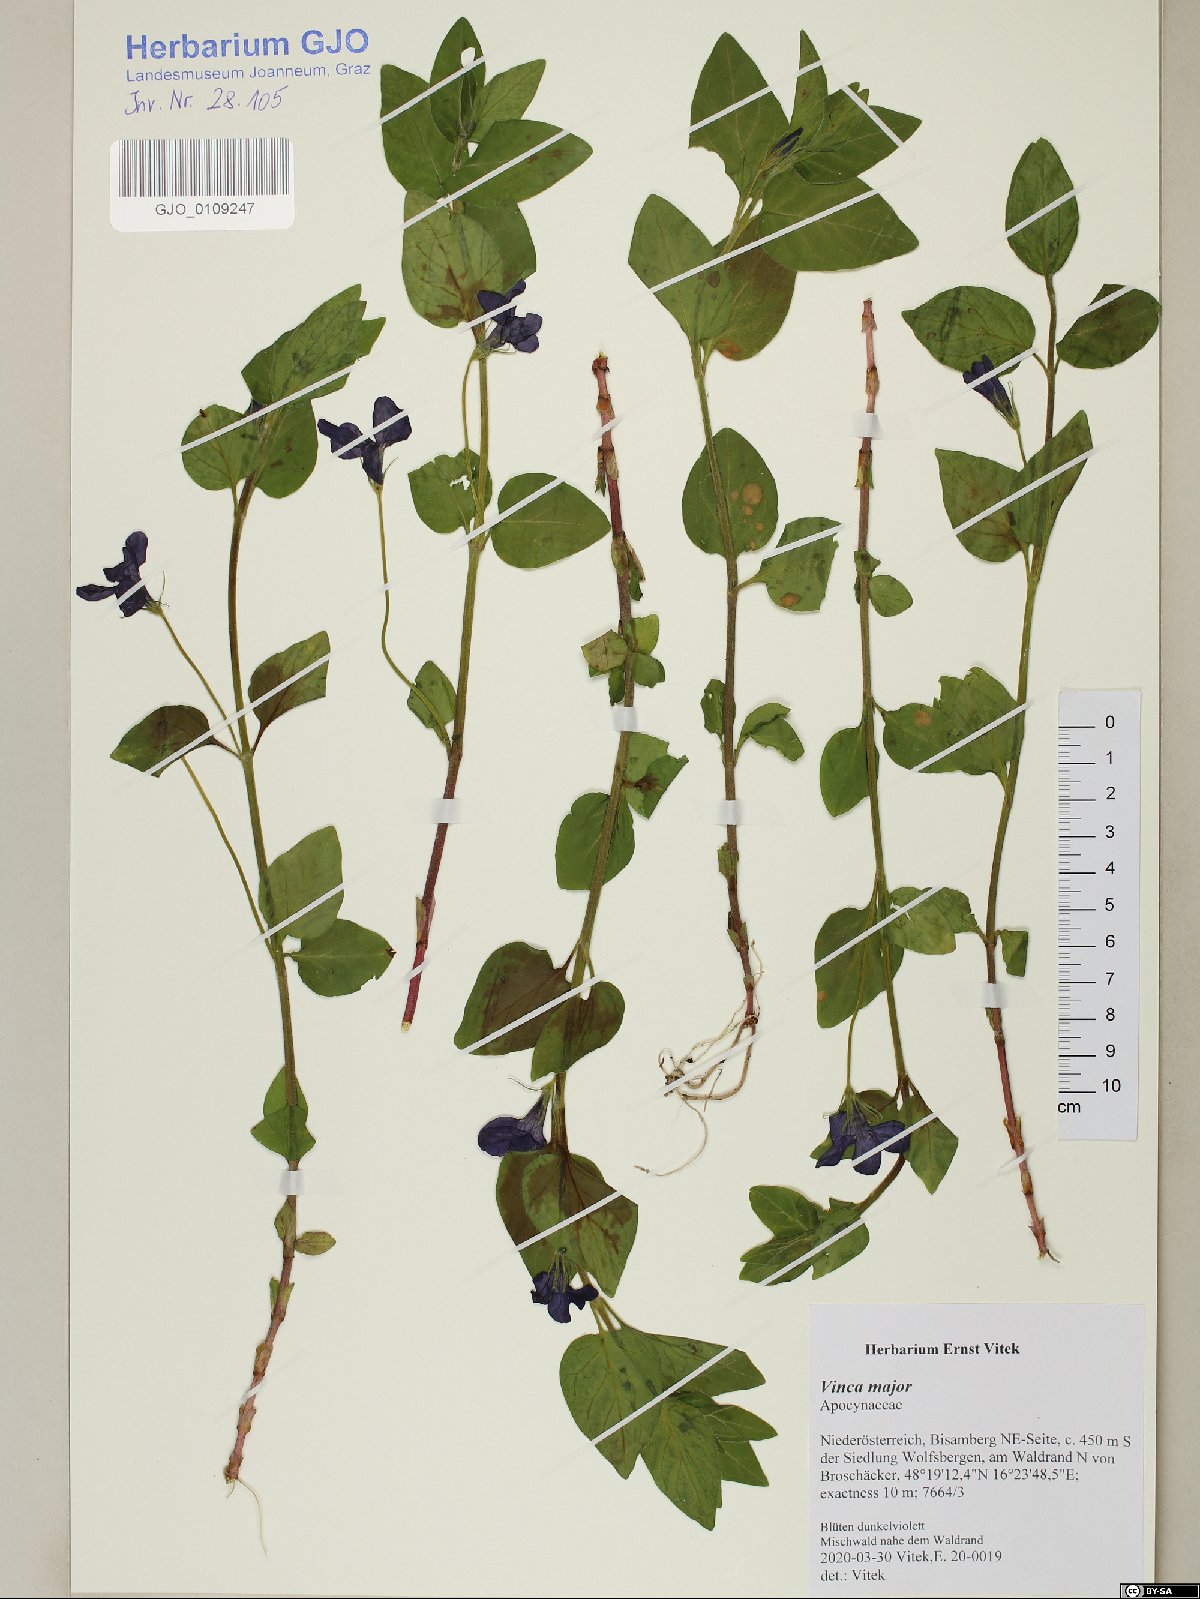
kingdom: Plantae
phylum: Tracheophyta
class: Magnoliopsida
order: Gentianales
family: Apocynaceae
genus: Vinca
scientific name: Vinca major
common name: Greater periwinkle
